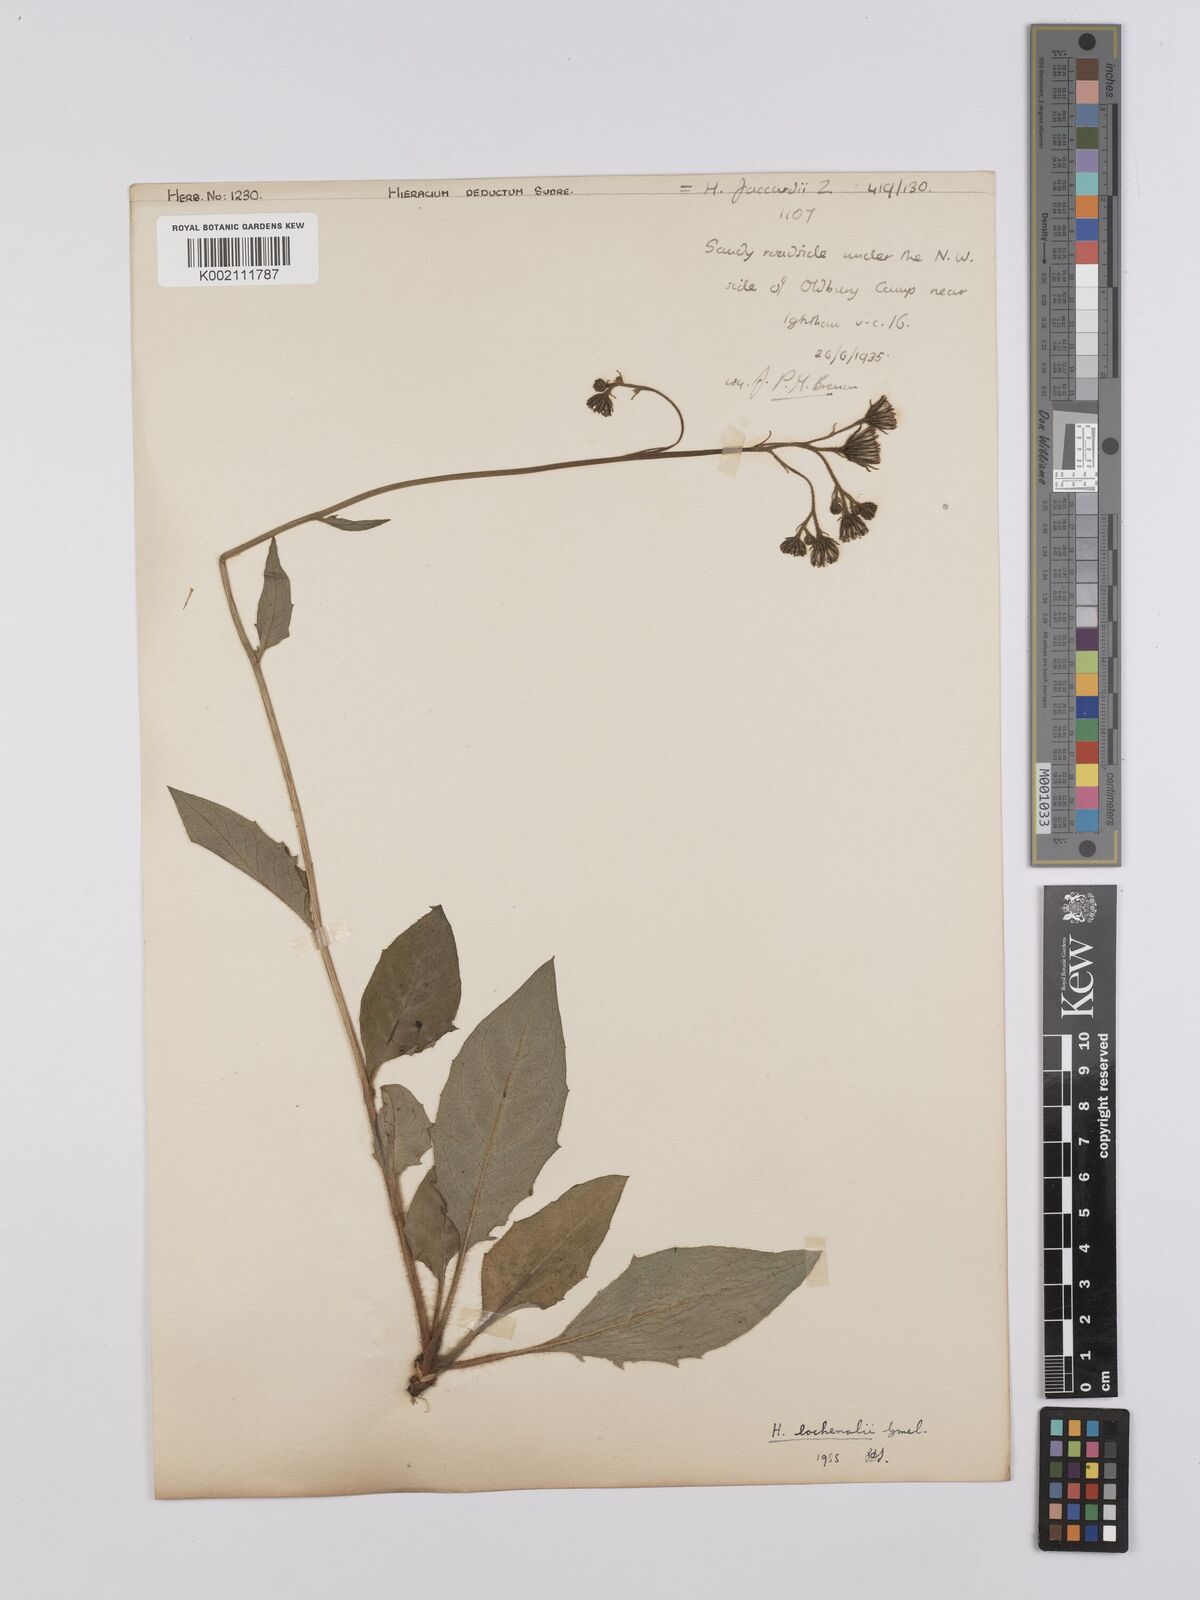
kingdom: Plantae
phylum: Tracheophyta
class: Magnoliopsida
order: Asterales
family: Asteraceae
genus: Hieracium
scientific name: Hieracium lachenalii
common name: Common hawkweed
